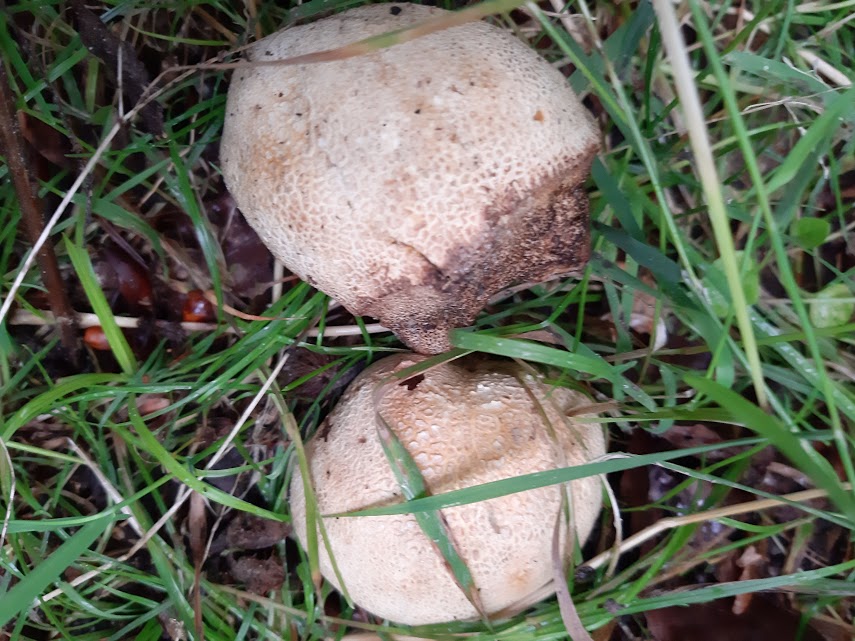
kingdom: Fungi
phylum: Basidiomycota
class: Agaricomycetes
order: Boletales
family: Sclerodermataceae
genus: Scleroderma
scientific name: Scleroderma citrinum
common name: almindelig bruskbold
